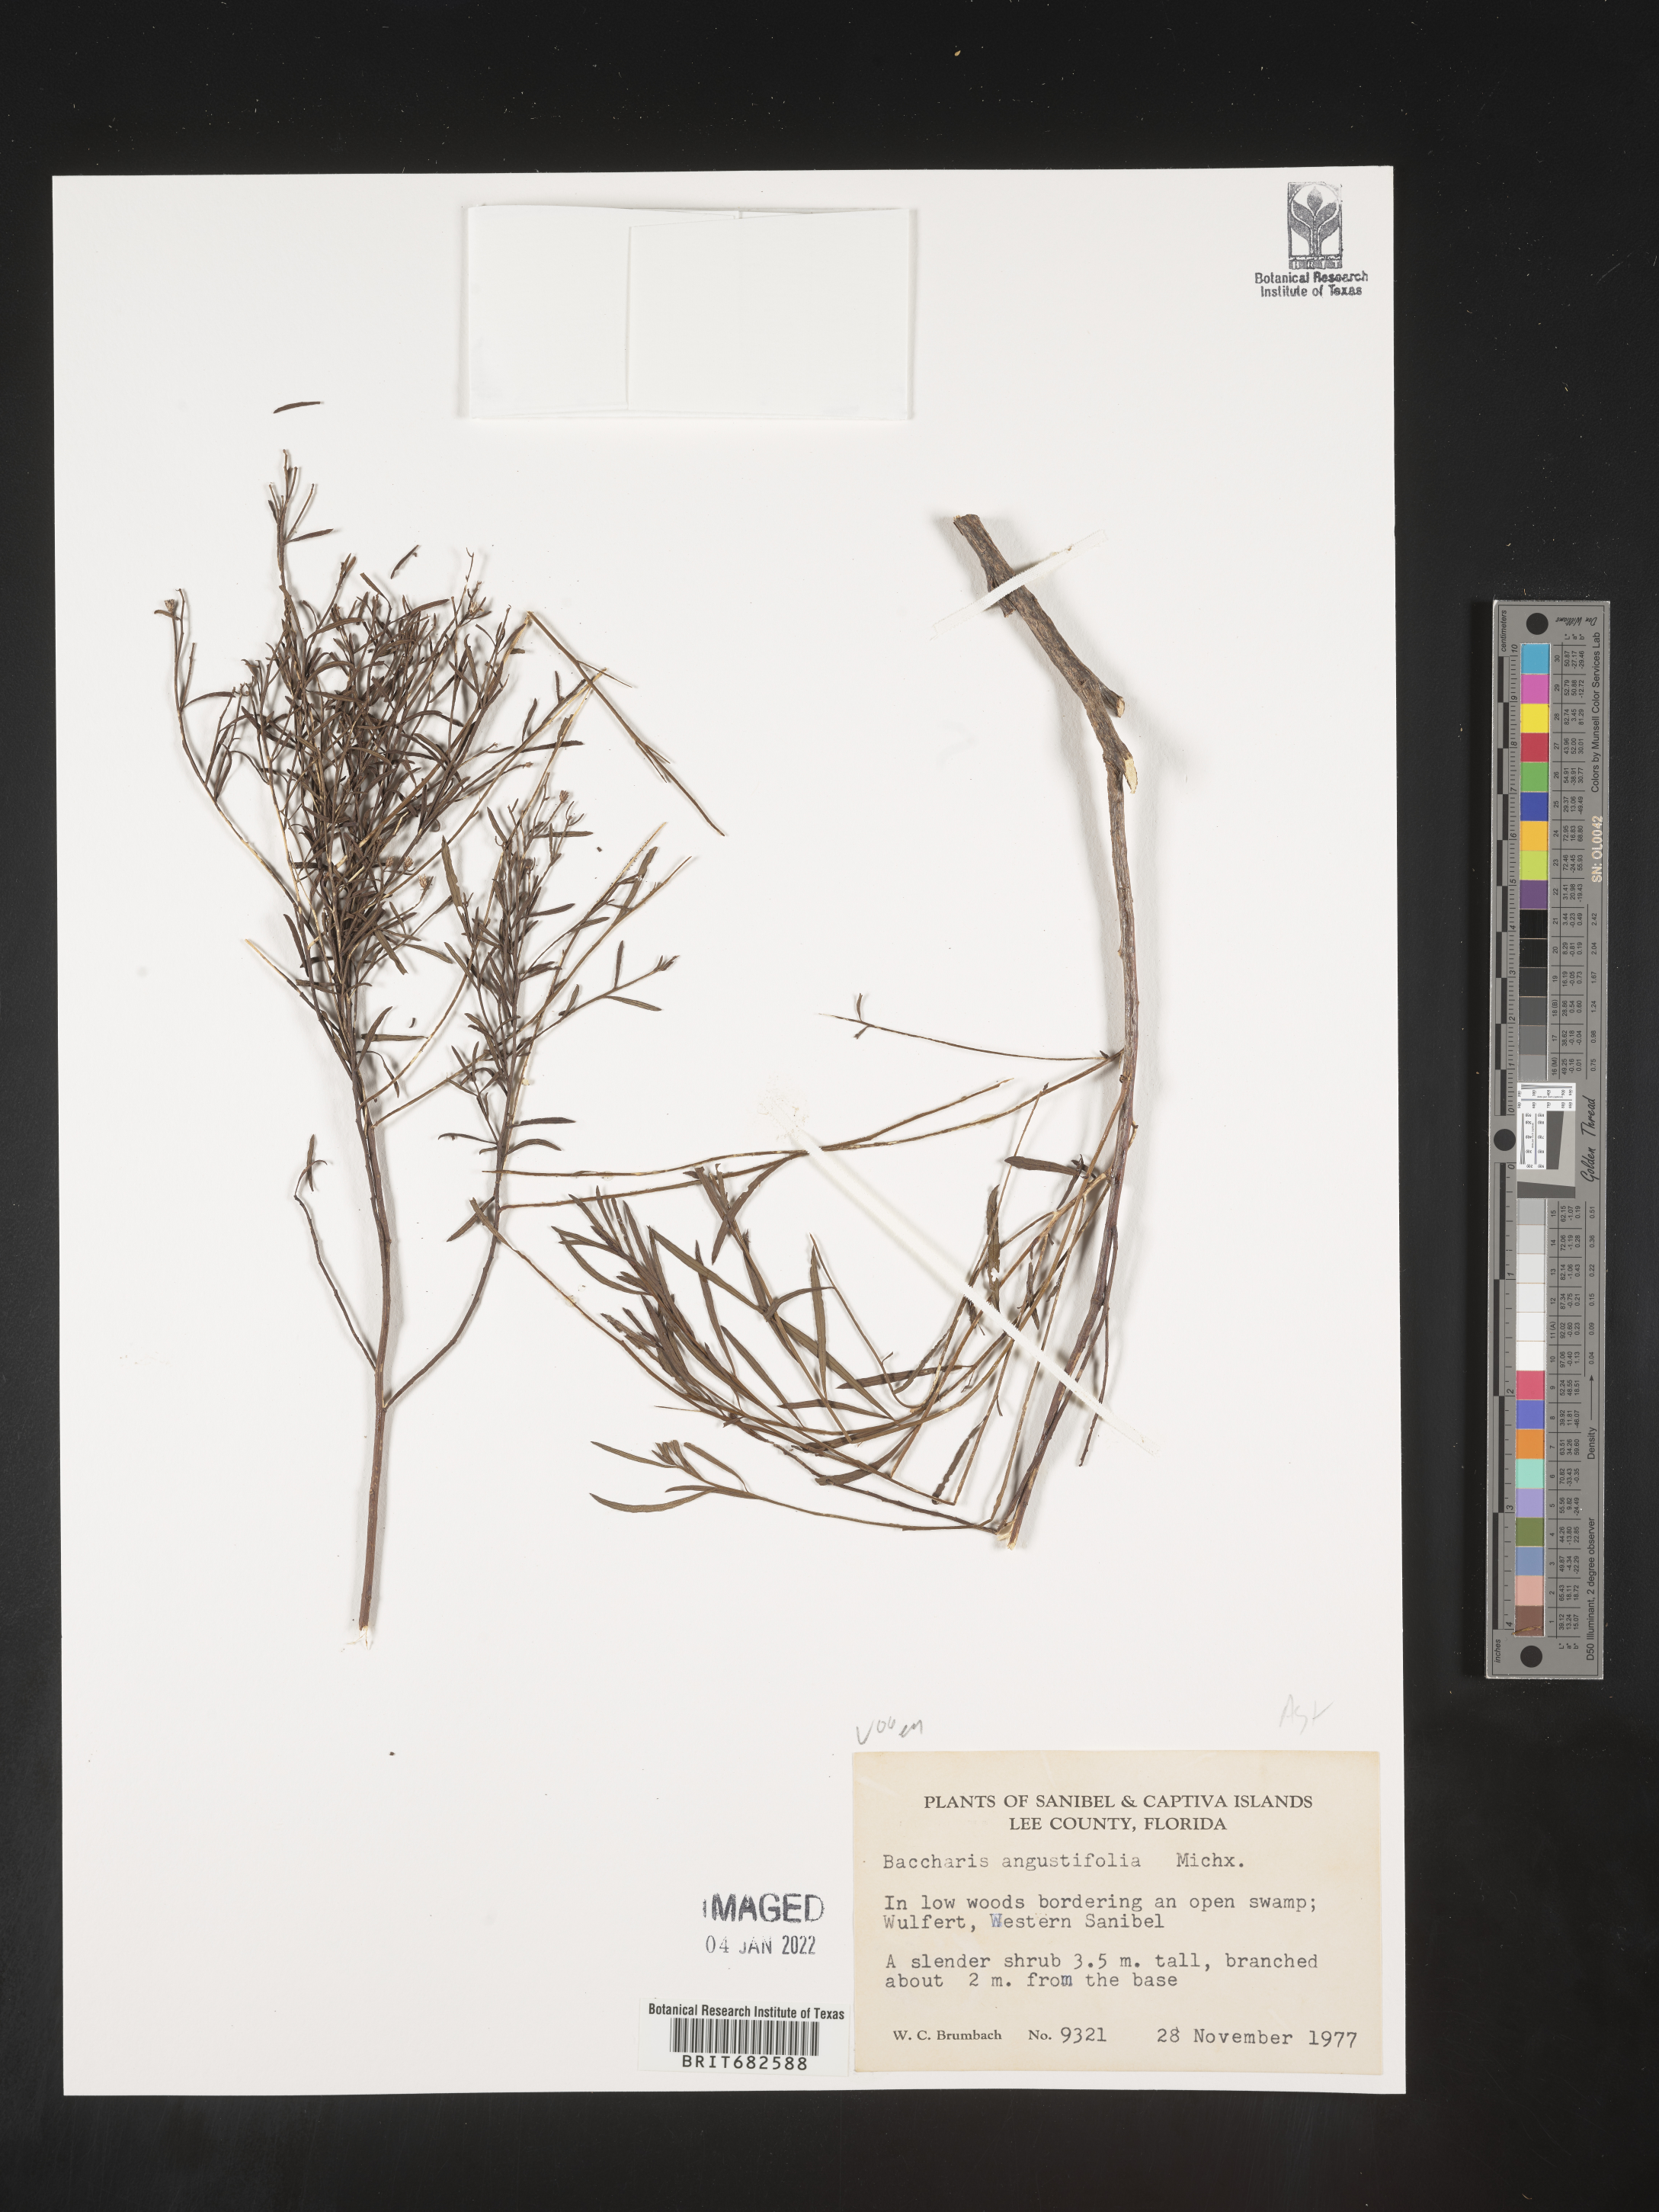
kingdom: Plantae
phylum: Tracheophyta
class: Magnoliopsida
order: Asterales
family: Asteraceae
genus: Baccharis
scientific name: Baccharis angustifolia
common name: Narrow-leaf baccharis
